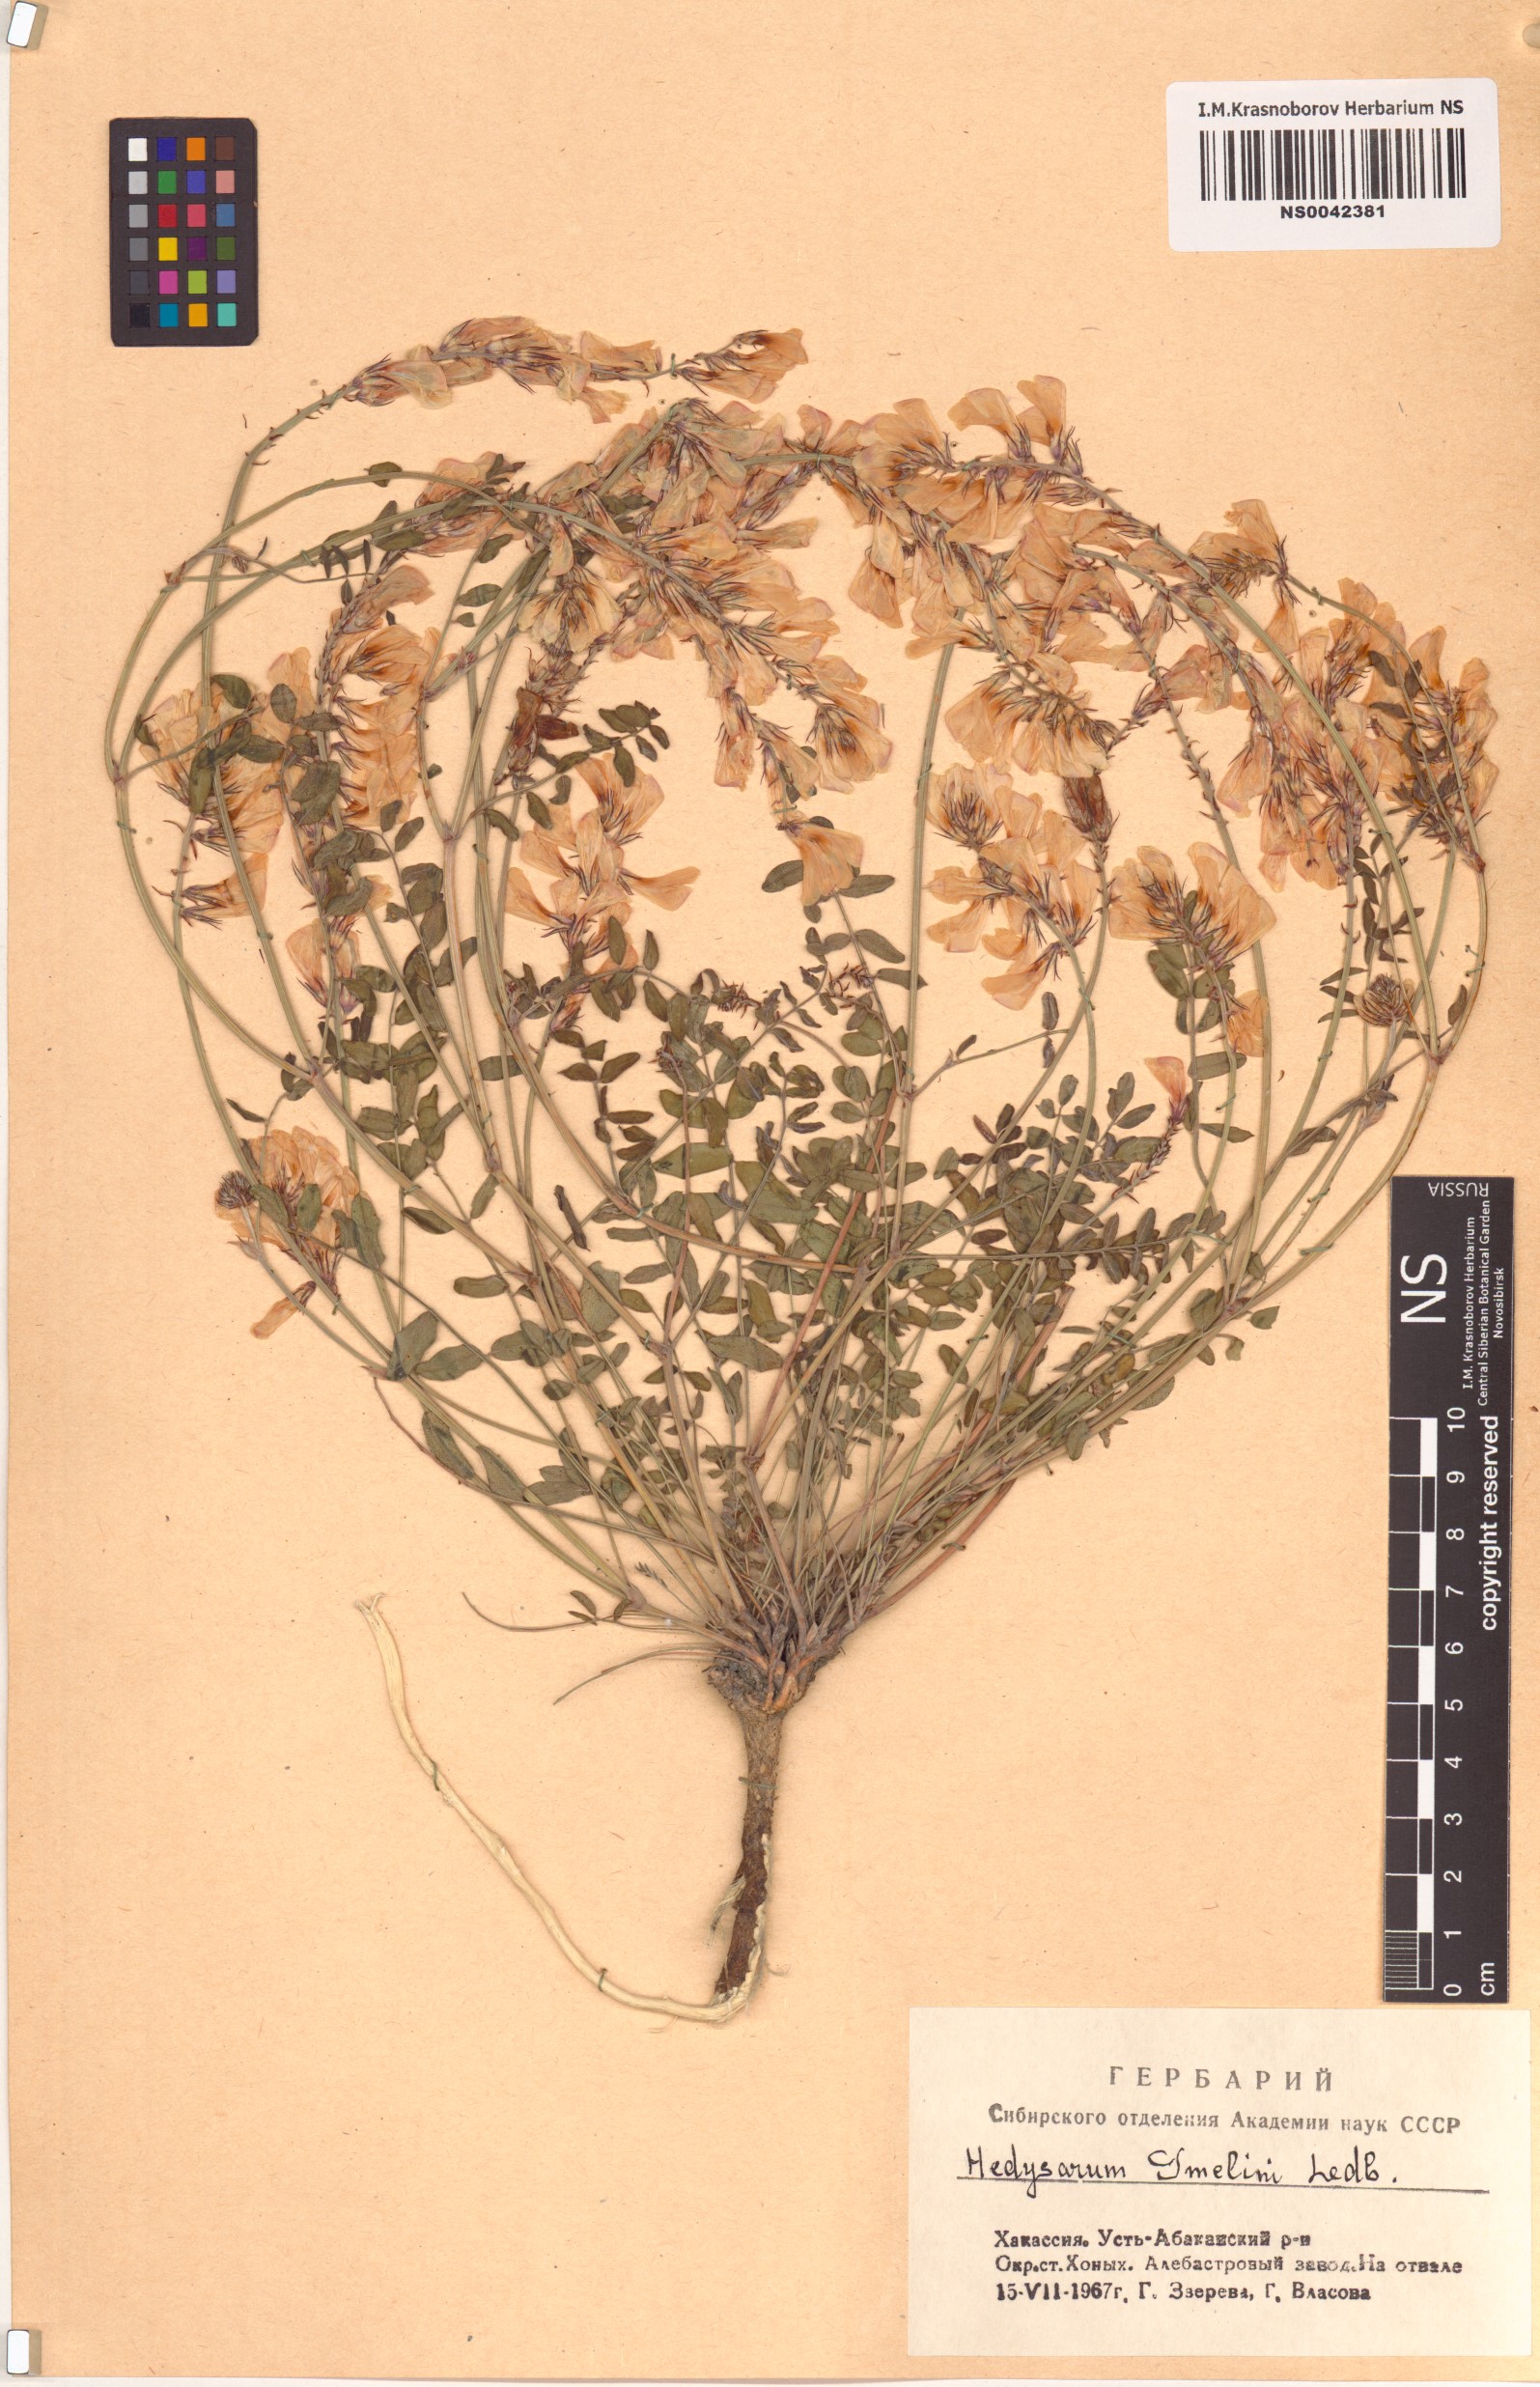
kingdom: Plantae
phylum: Tracheophyta
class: Magnoliopsida
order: Fabales
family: Fabaceae
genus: Hedysarum
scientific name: Hedysarum gmelinii
